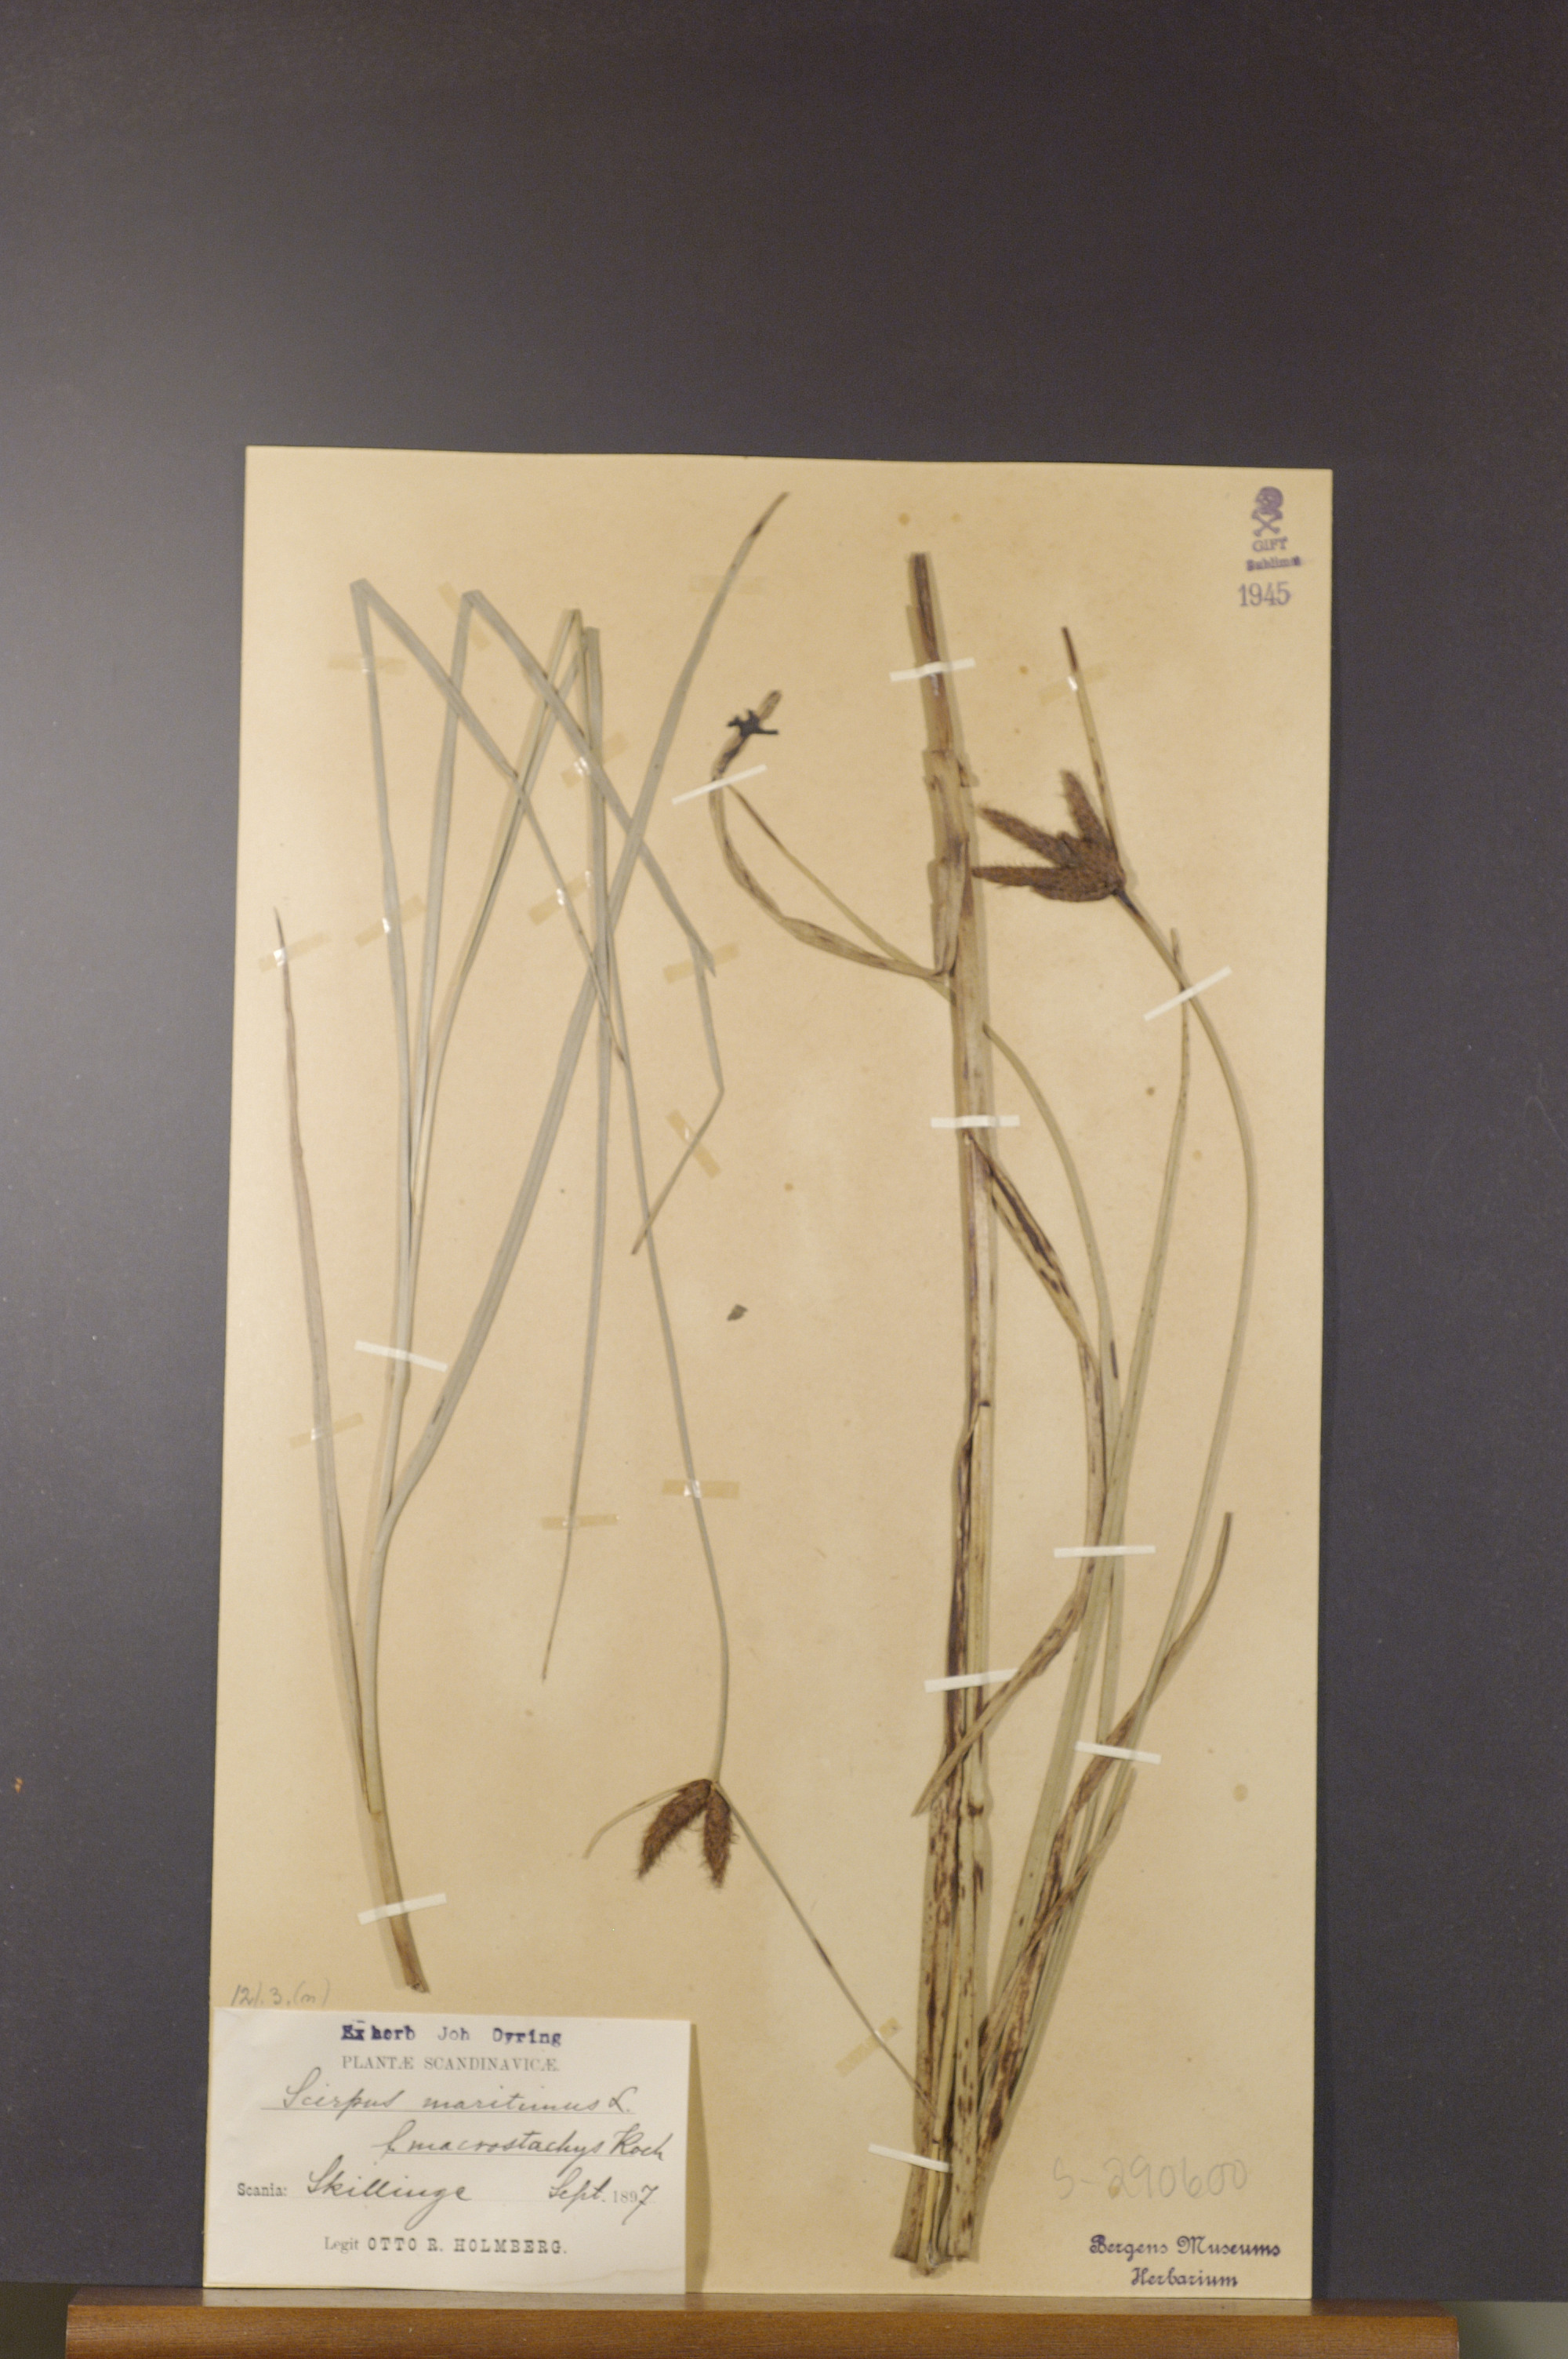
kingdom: Plantae
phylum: Tracheophyta
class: Liliopsida
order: Poales
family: Cyperaceae
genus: Bolboschoenus
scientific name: Bolboschoenus maritimus
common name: Sea club-rush
